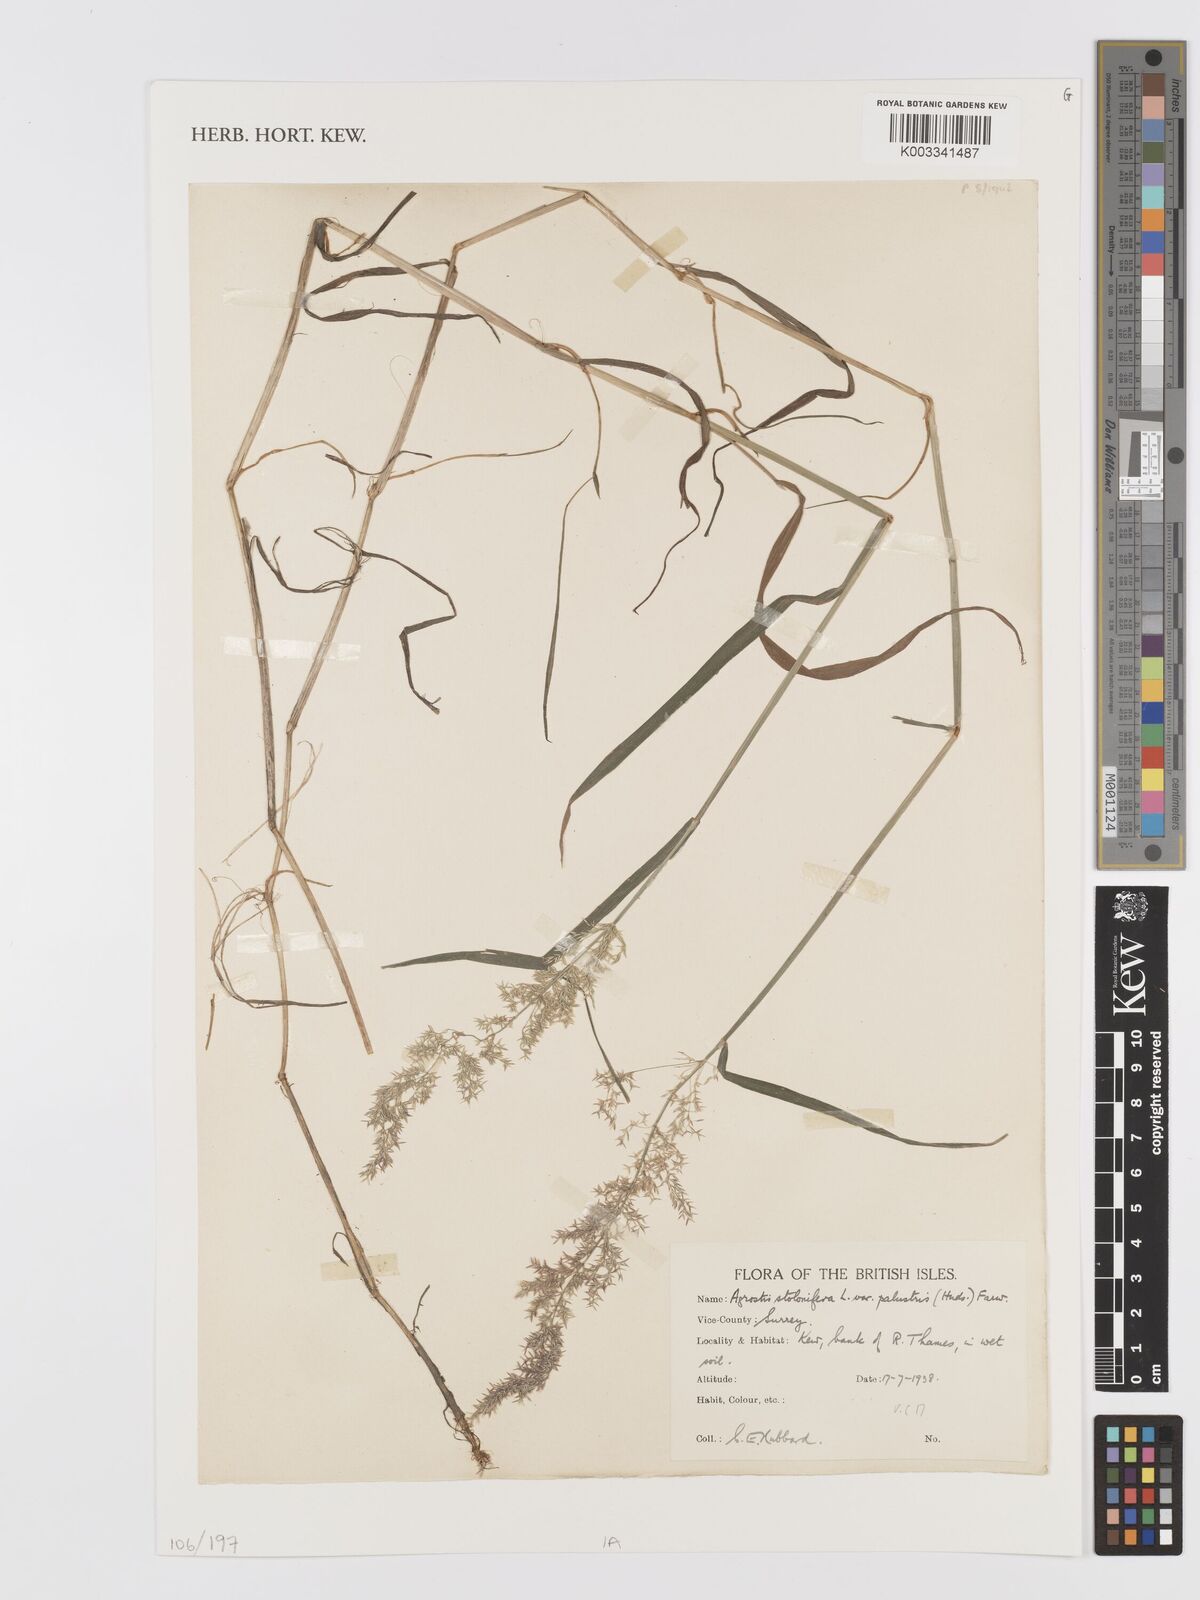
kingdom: Plantae
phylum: Tracheophyta
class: Liliopsida
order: Poales
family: Poaceae
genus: Agrostis
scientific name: Agrostis stolonifera
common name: Creeping bentgrass
